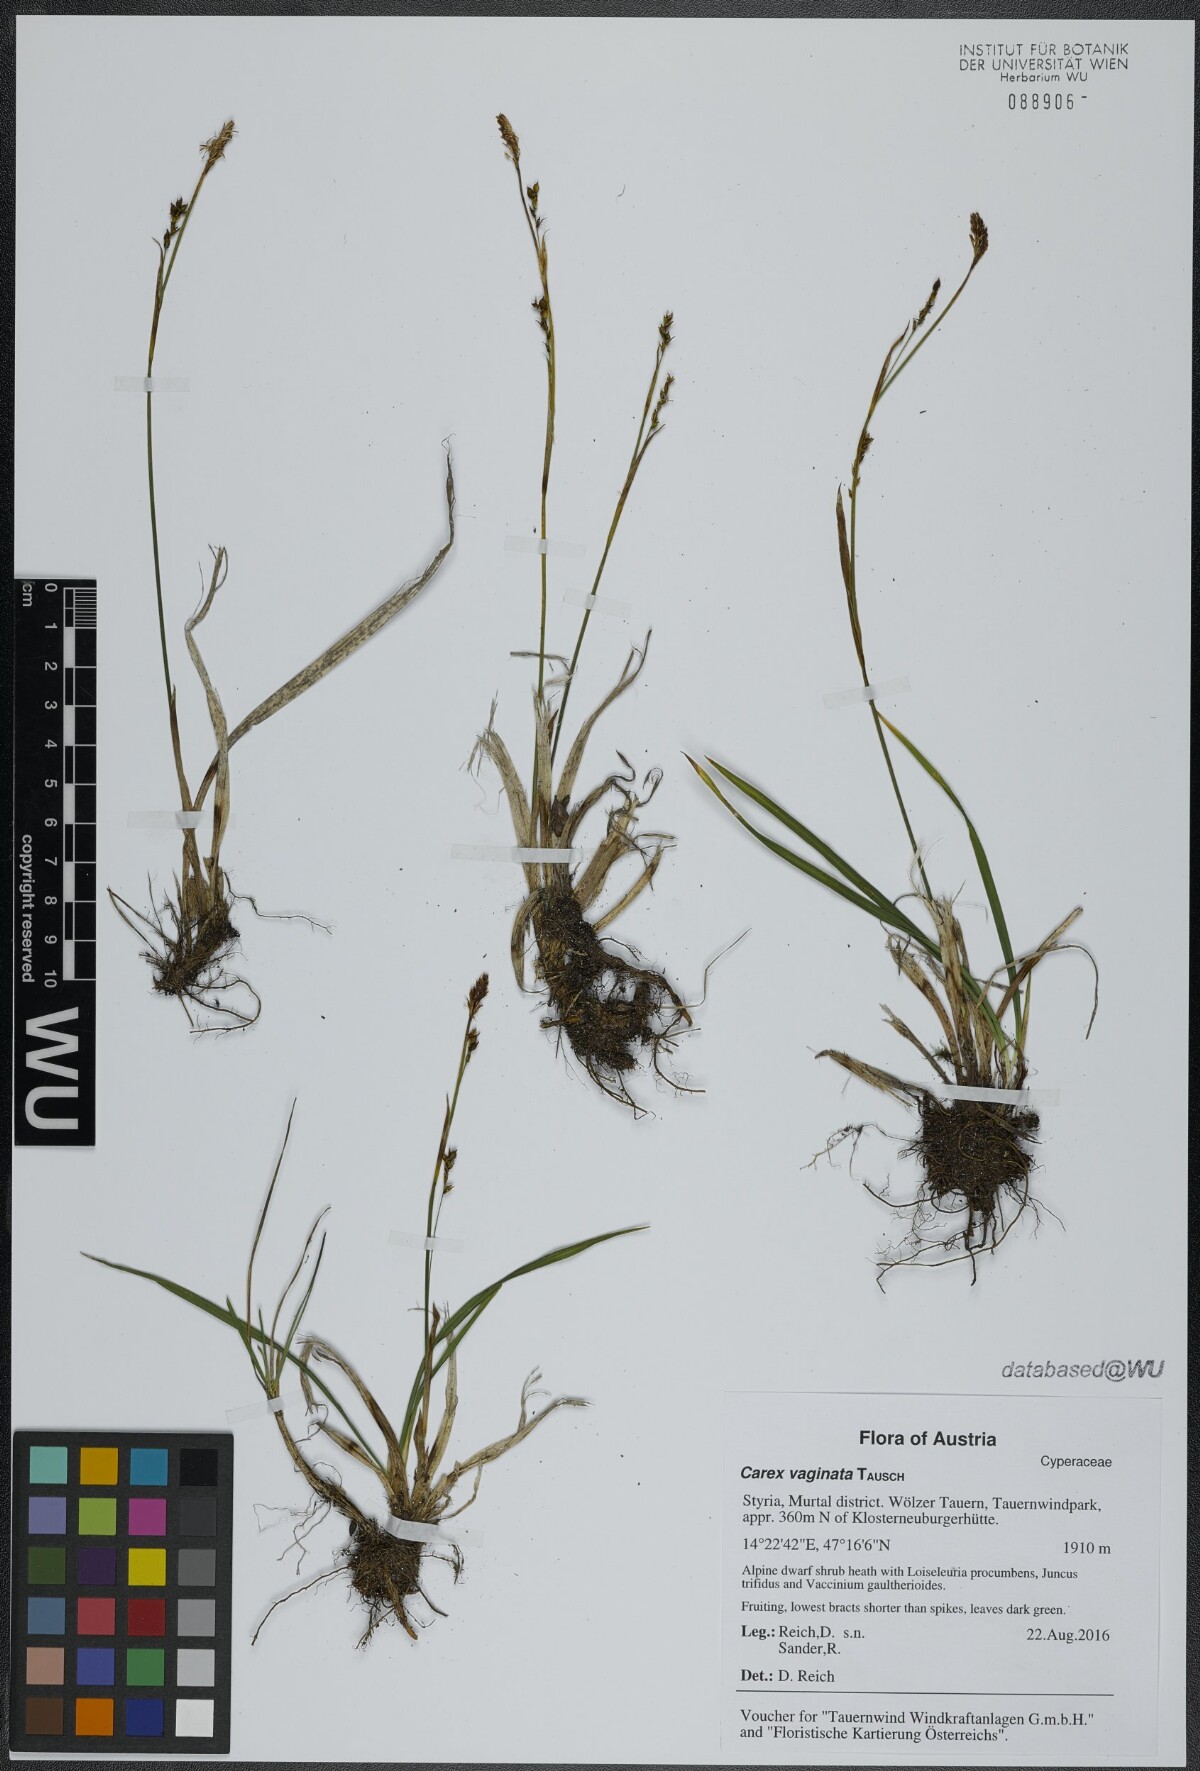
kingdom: Plantae
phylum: Tracheophyta
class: Liliopsida
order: Poales
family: Cyperaceae
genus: Carex
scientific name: Carex vaginata
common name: Sheathed sedge
